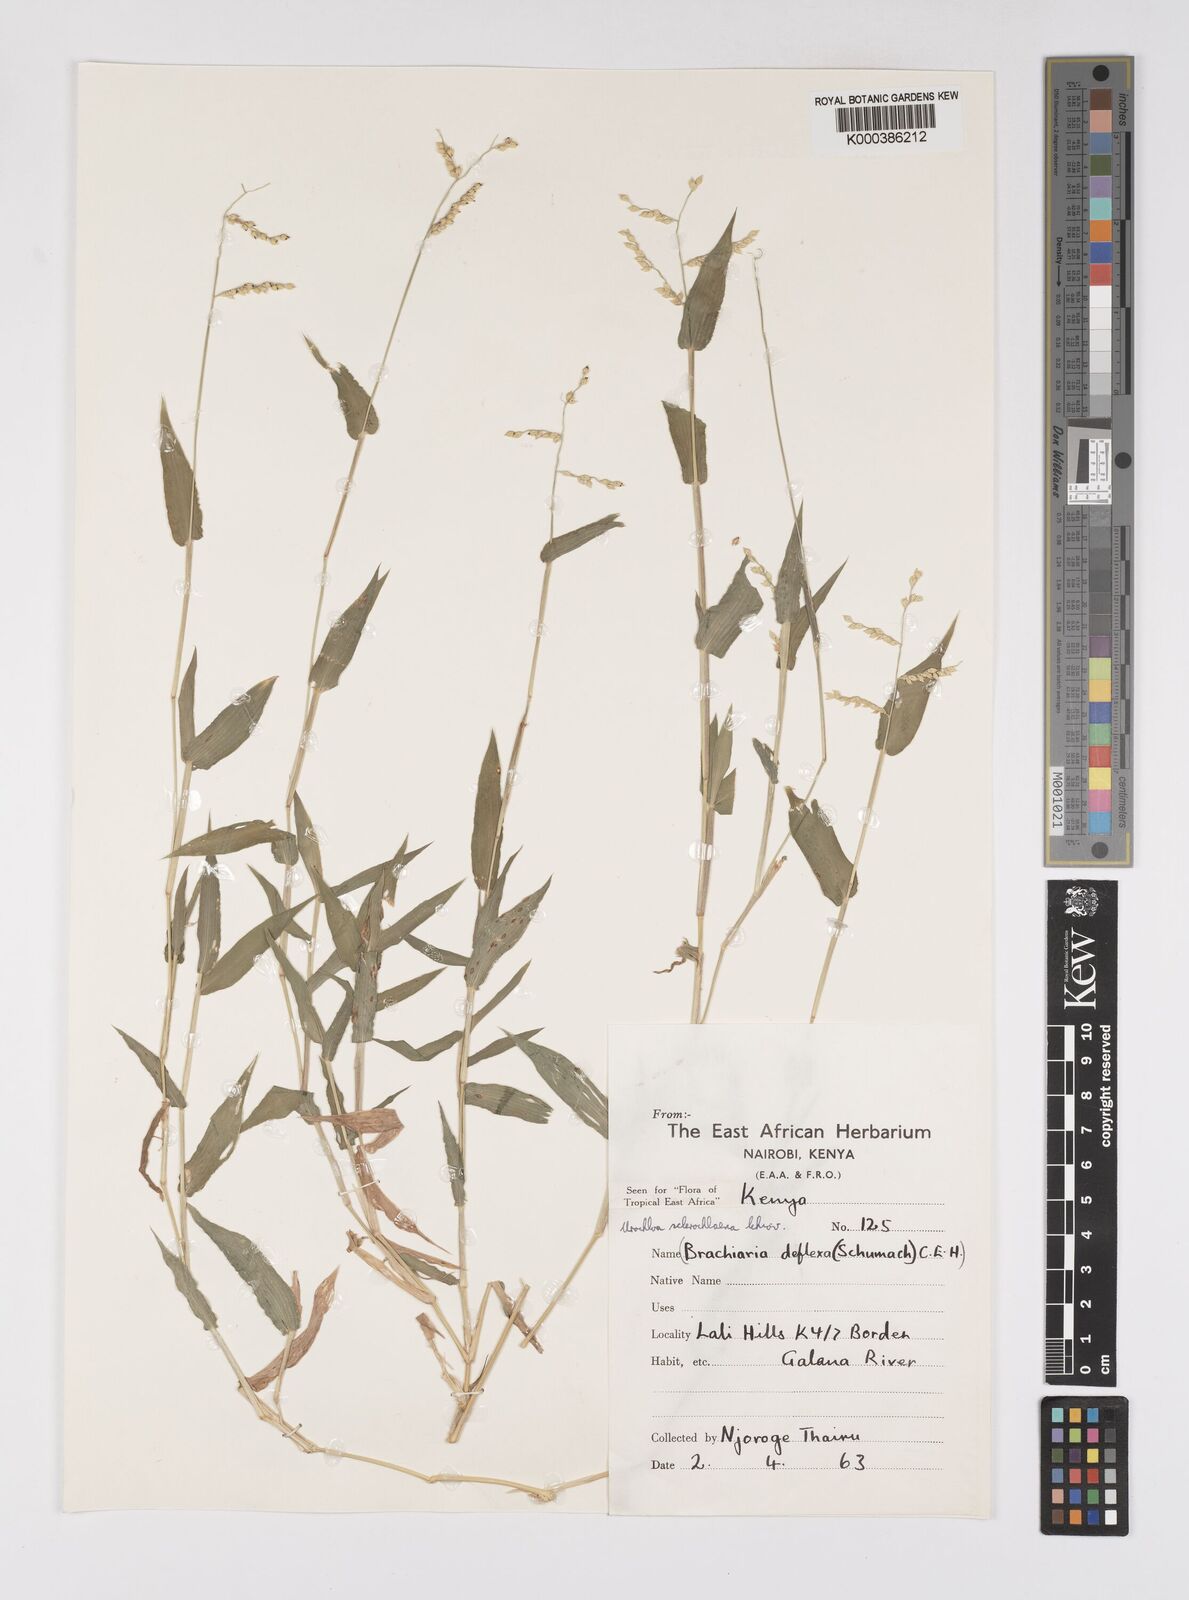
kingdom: Plantae
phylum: Tracheophyta
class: Liliopsida
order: Poales
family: Poaceae
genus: Urochloa
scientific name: Urochloa sclerochlaena
